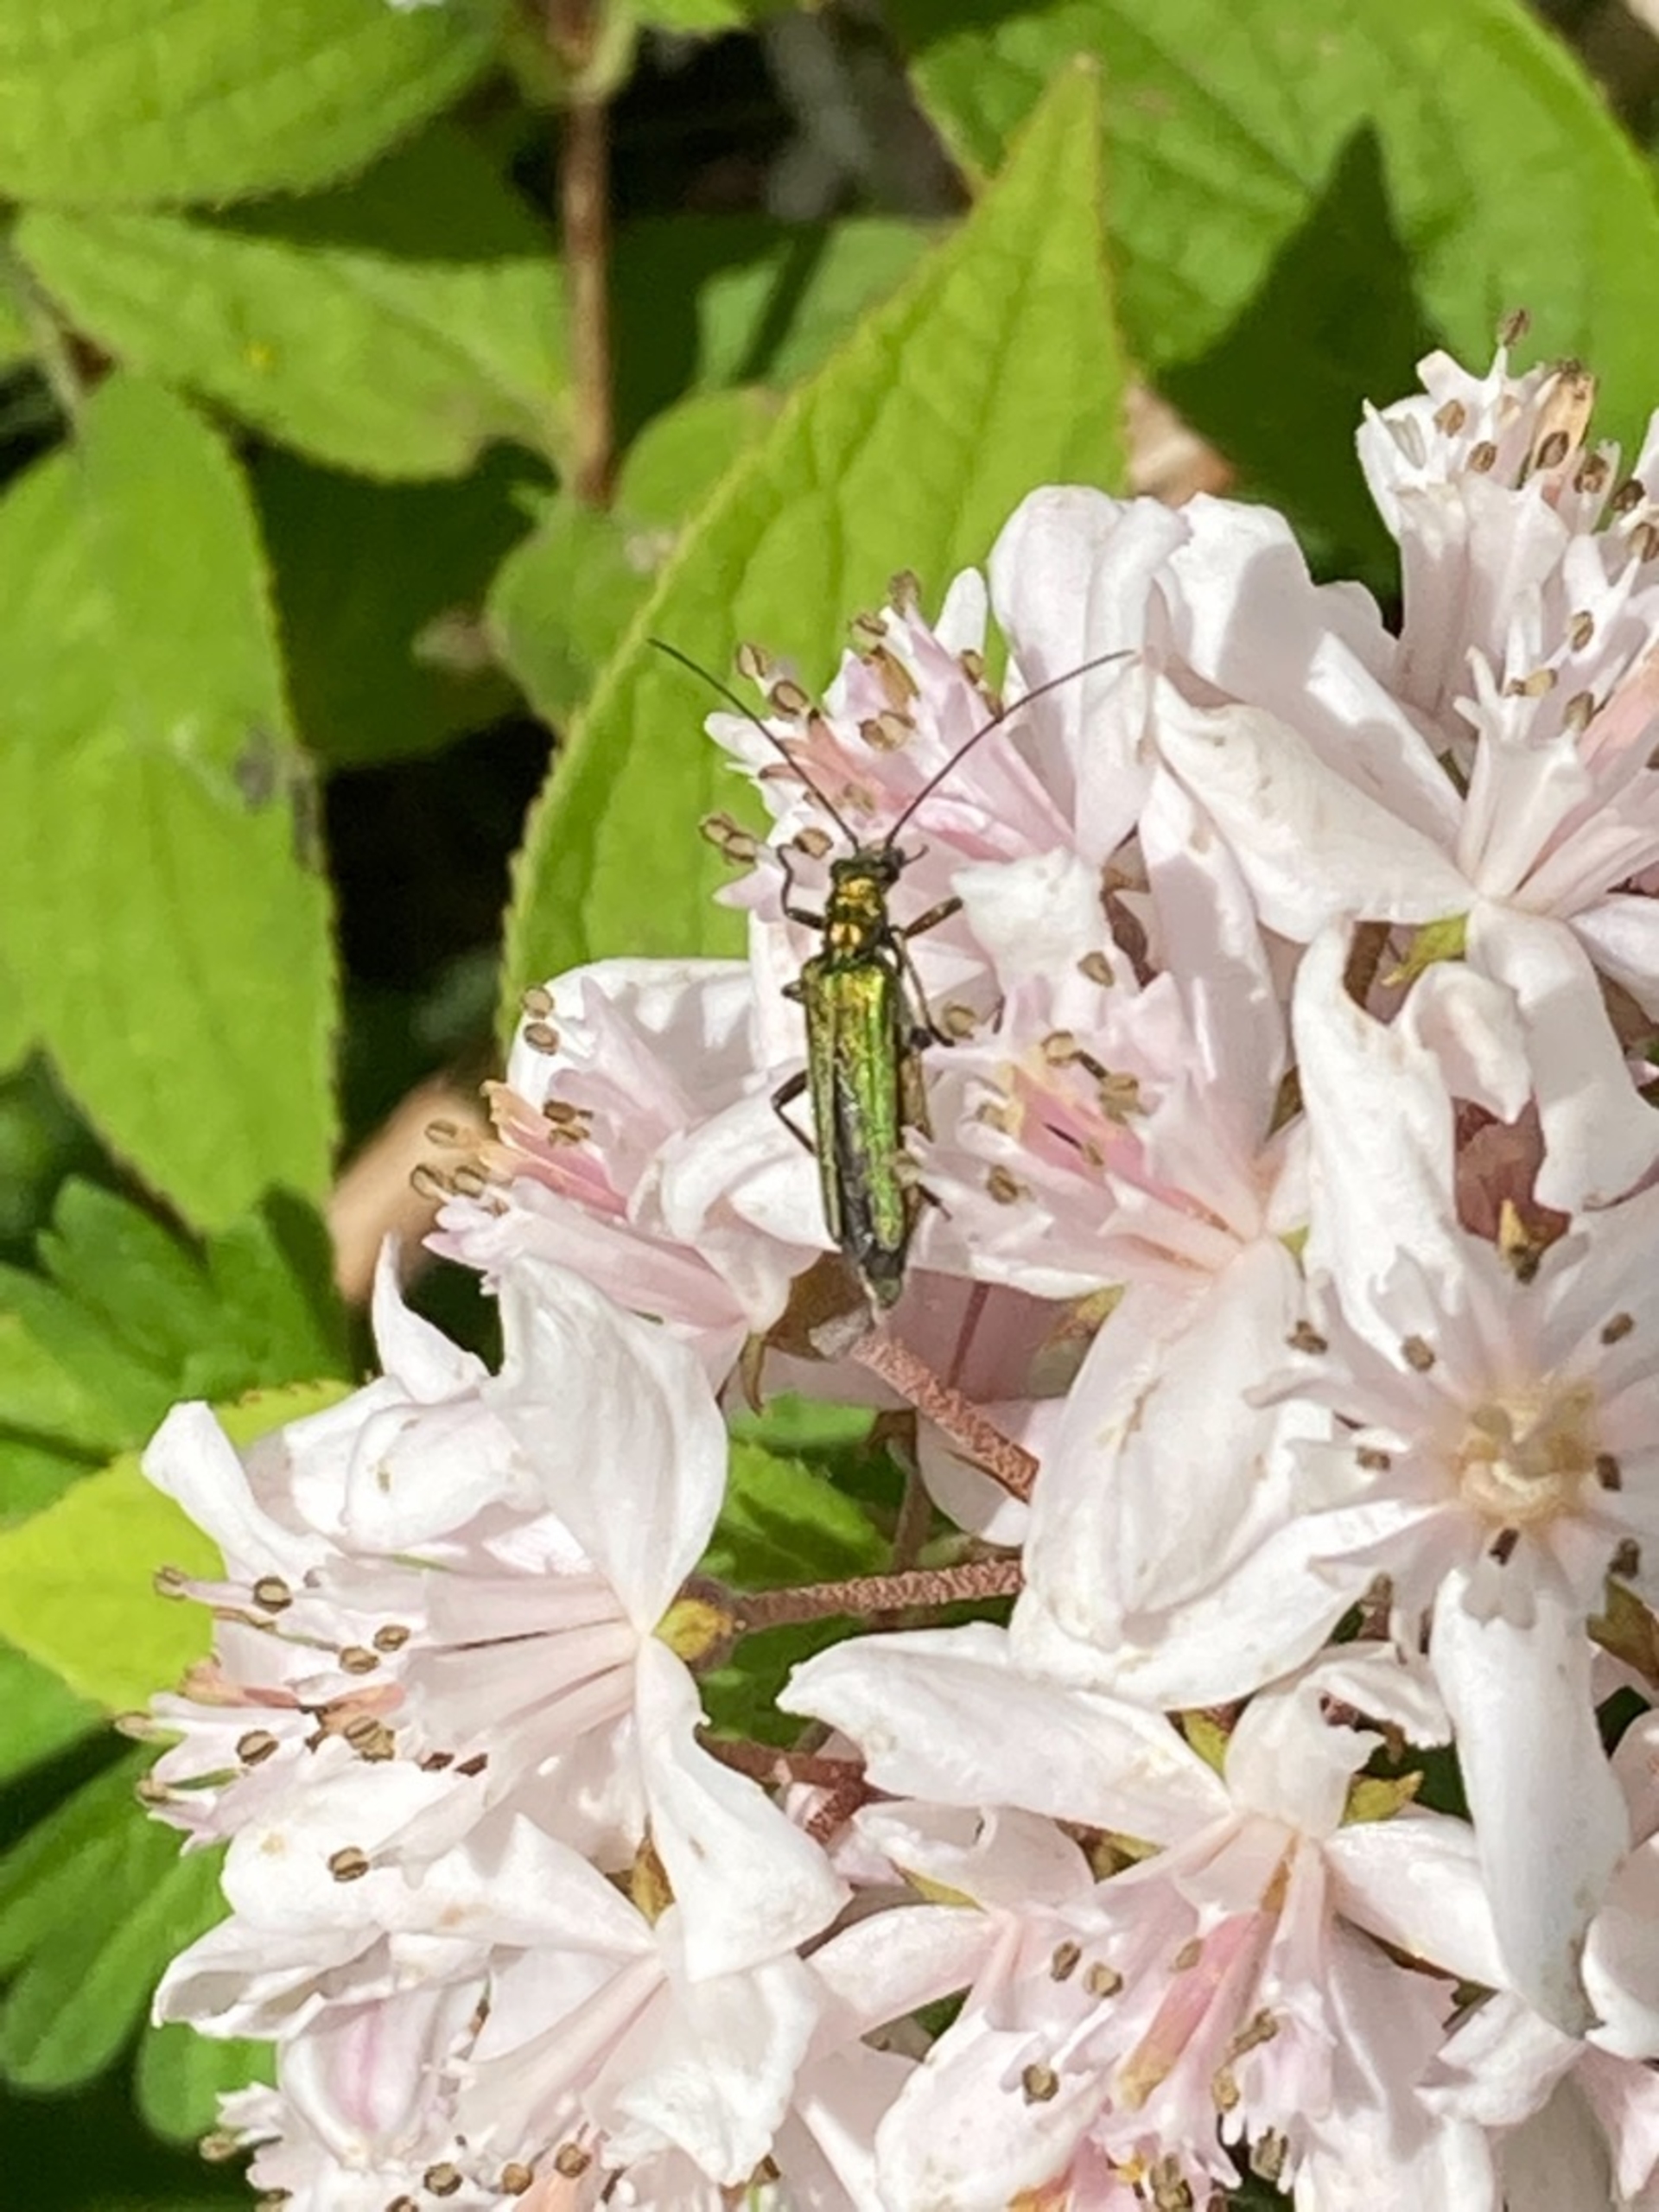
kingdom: Animalia
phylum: Arthropoda
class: Insecta
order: Coleoptera
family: Oedemeridae
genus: Oedemera
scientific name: Oedemera nobilis
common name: Tyklårssolbille
